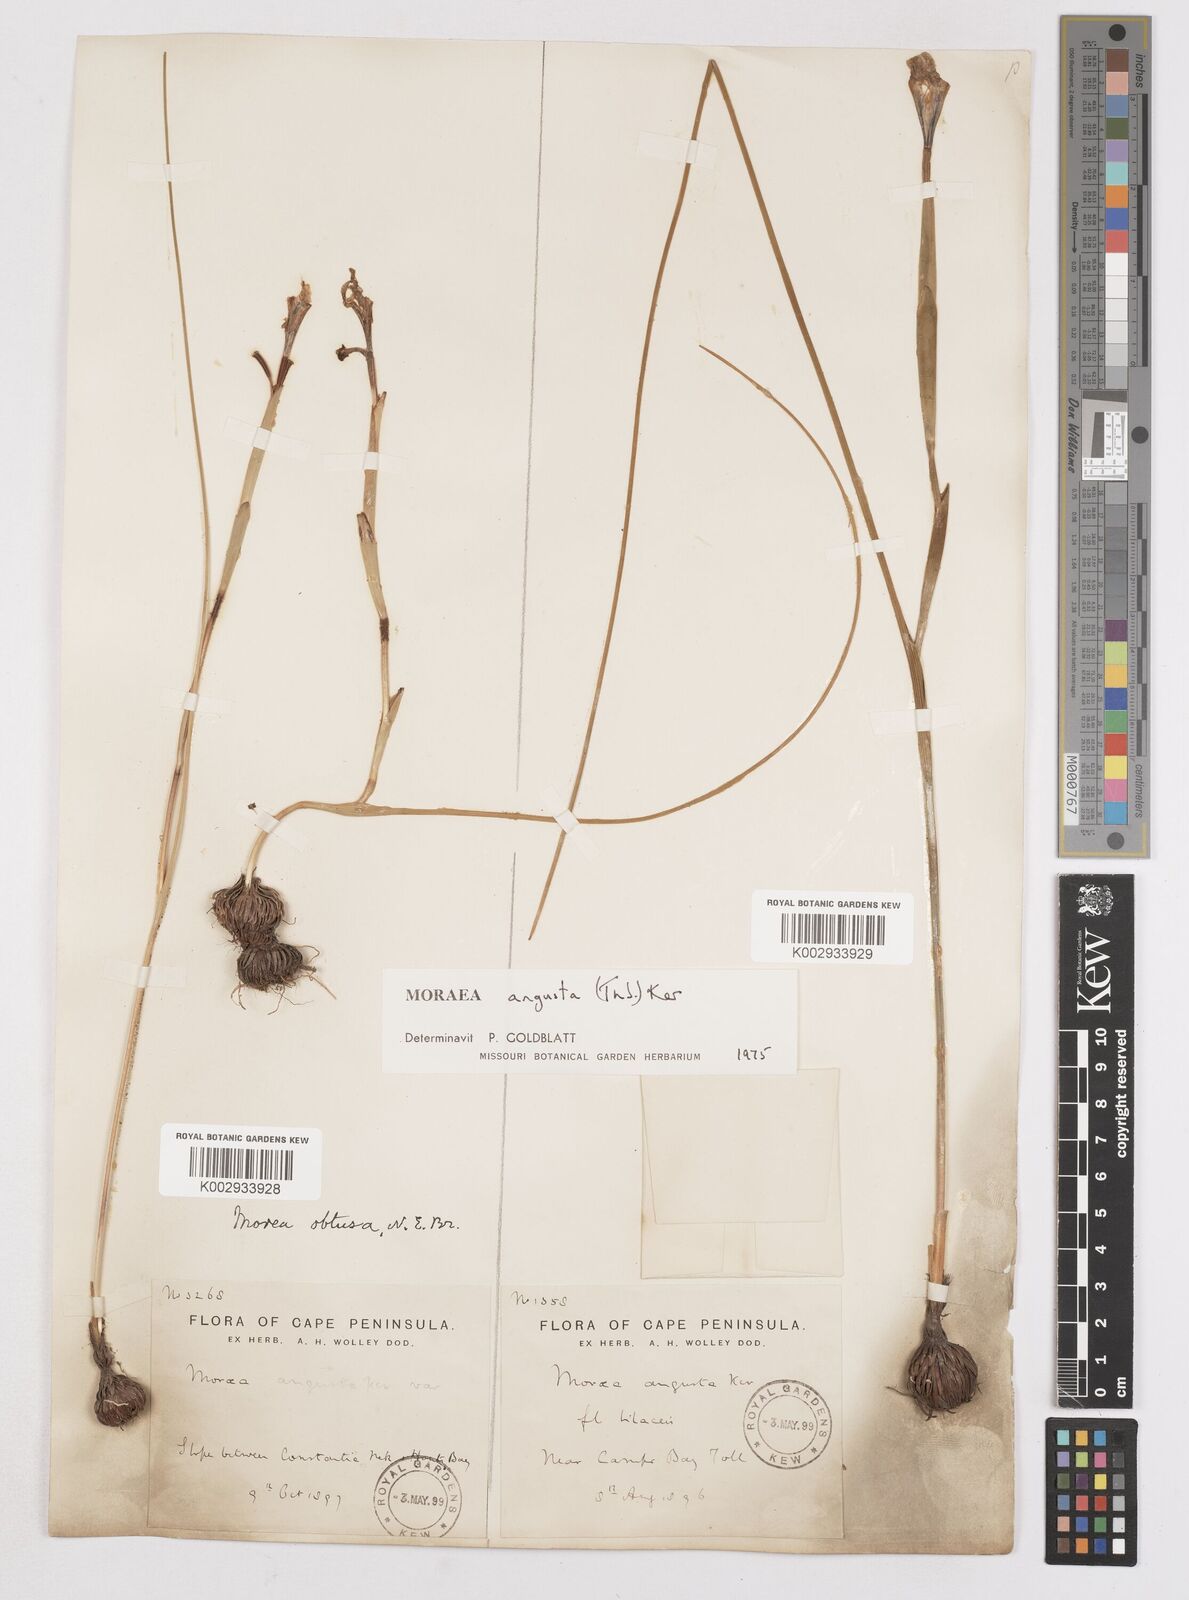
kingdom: Plantae
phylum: Tracheophyta
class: Liliopsida
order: Asparagales
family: Iridaceae
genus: Moraea
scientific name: Moraea angusta
